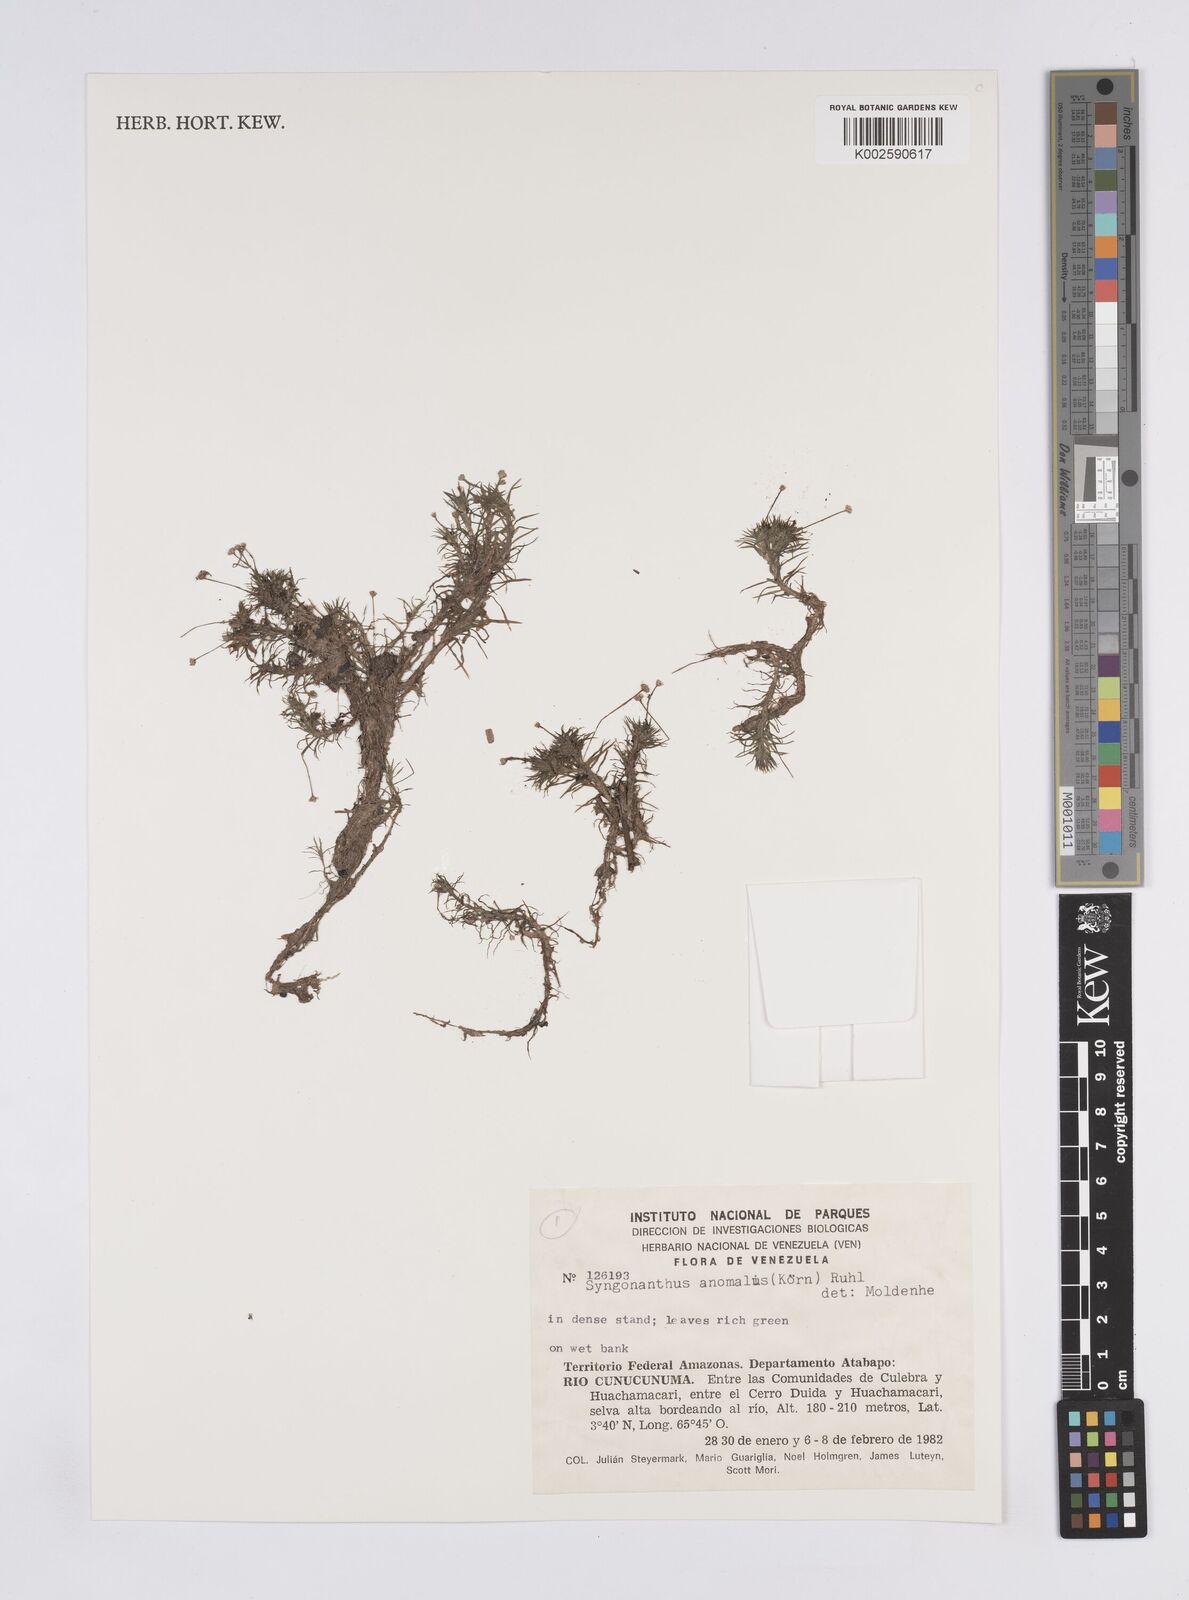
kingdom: Plantae
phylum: Tracheophyta
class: Liliopsida
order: Poales
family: Eriocaulaceae
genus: Syngonanthus
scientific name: Syngonanthus anomalus
